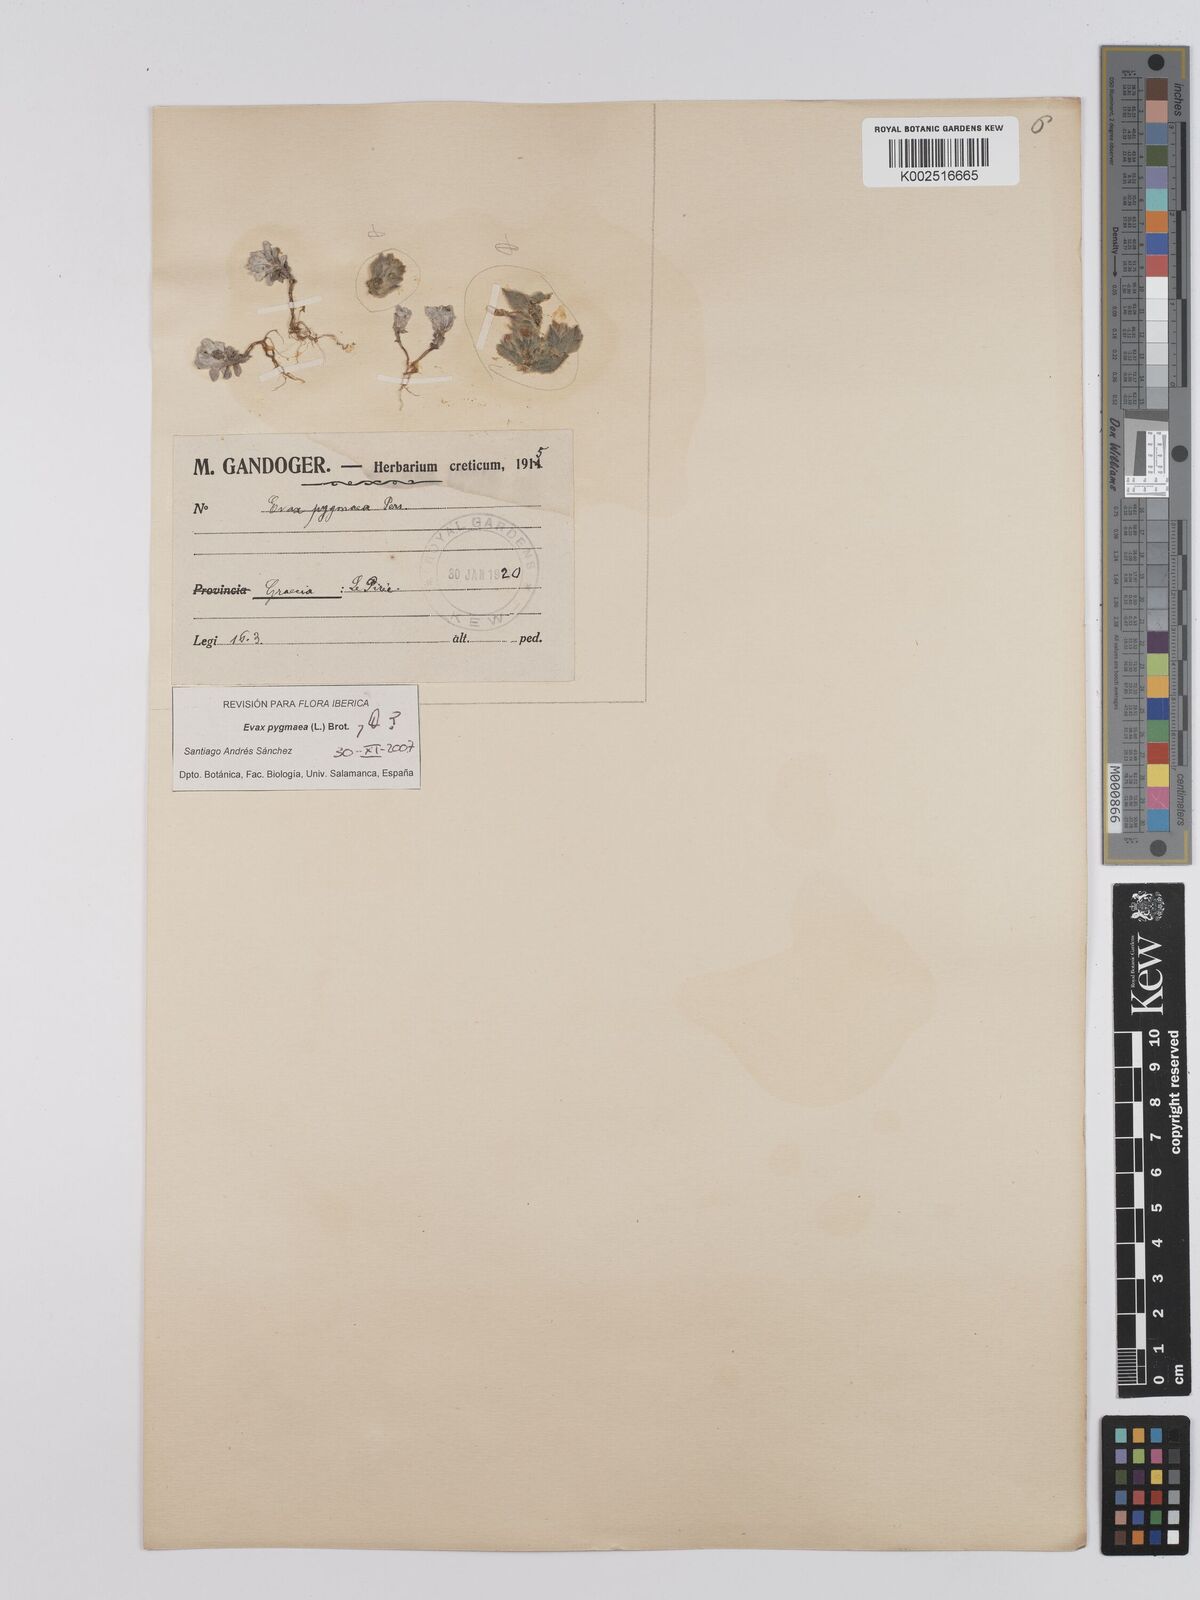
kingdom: Plantae
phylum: Tracheophyta
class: Magnoliopsida
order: Asterales
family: Asteraceae
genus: Filago
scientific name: Filago pygmaea
